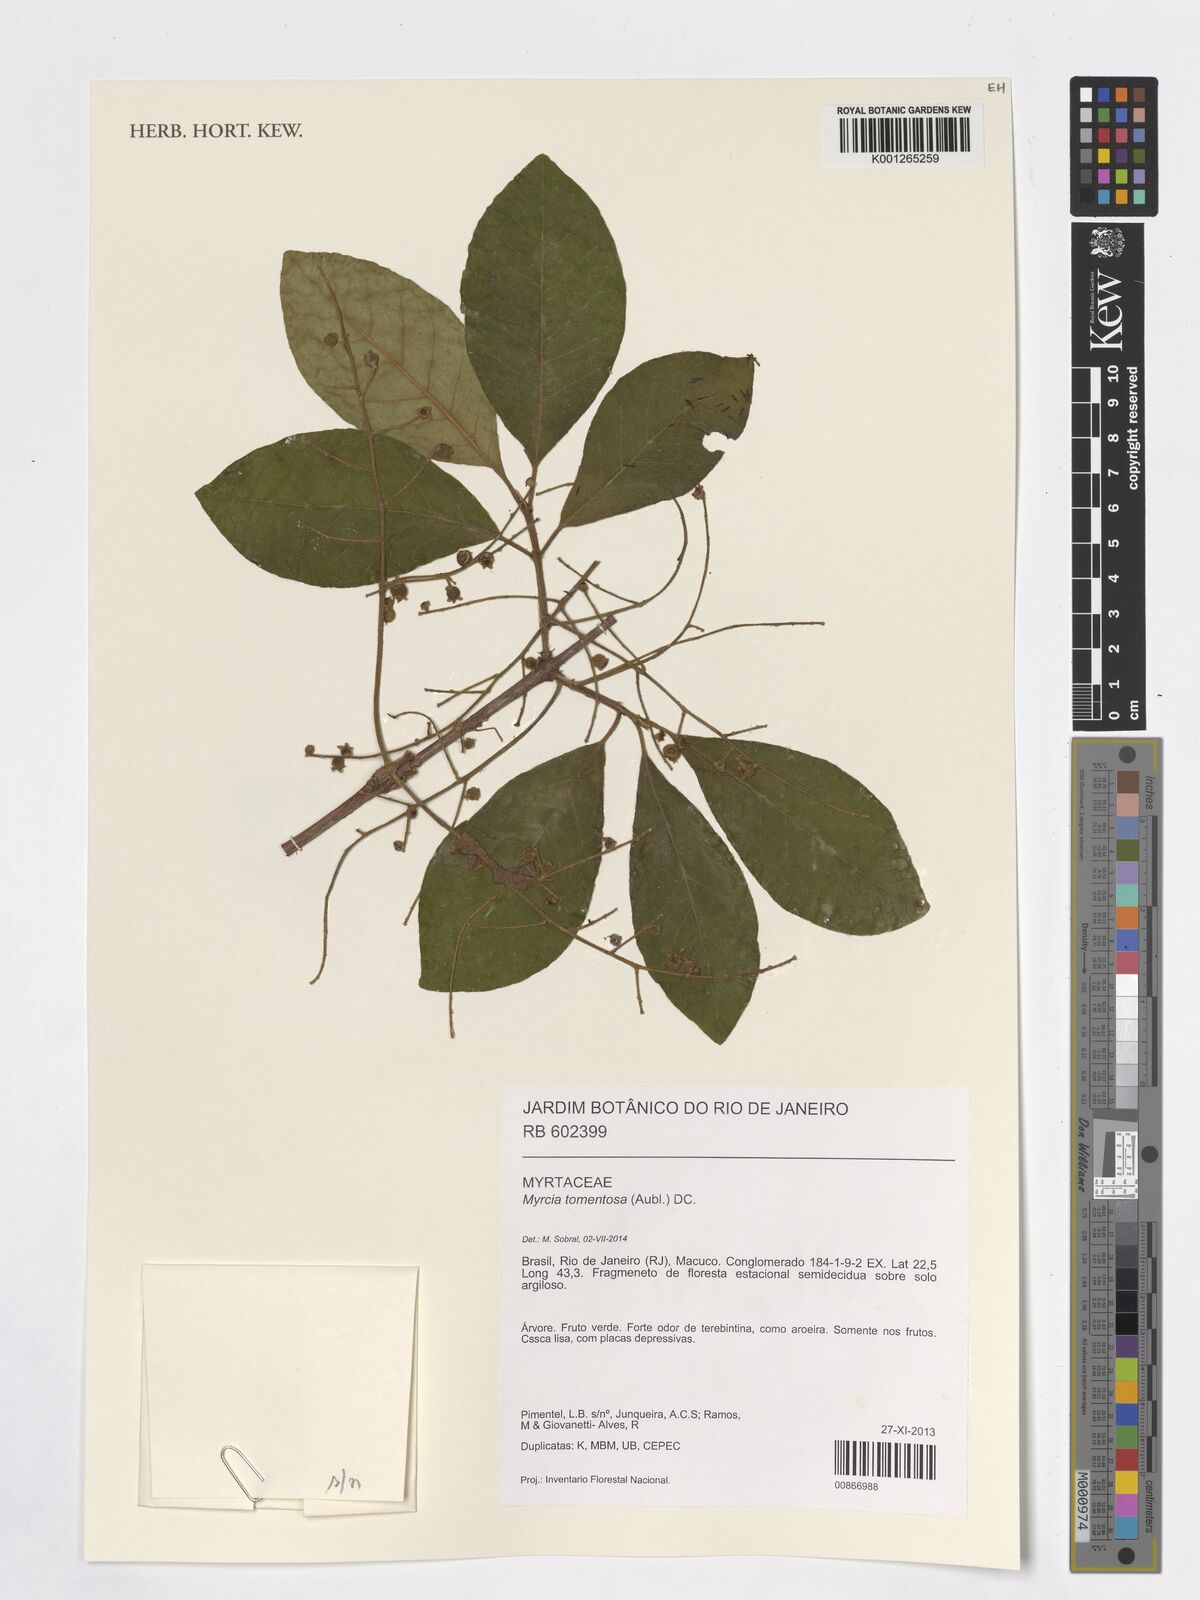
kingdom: Plantae
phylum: Tracheophyta
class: Magnoliopsida
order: Myrtales
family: Myrtaceae
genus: Myrcia
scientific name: Myrcia tomentosa
